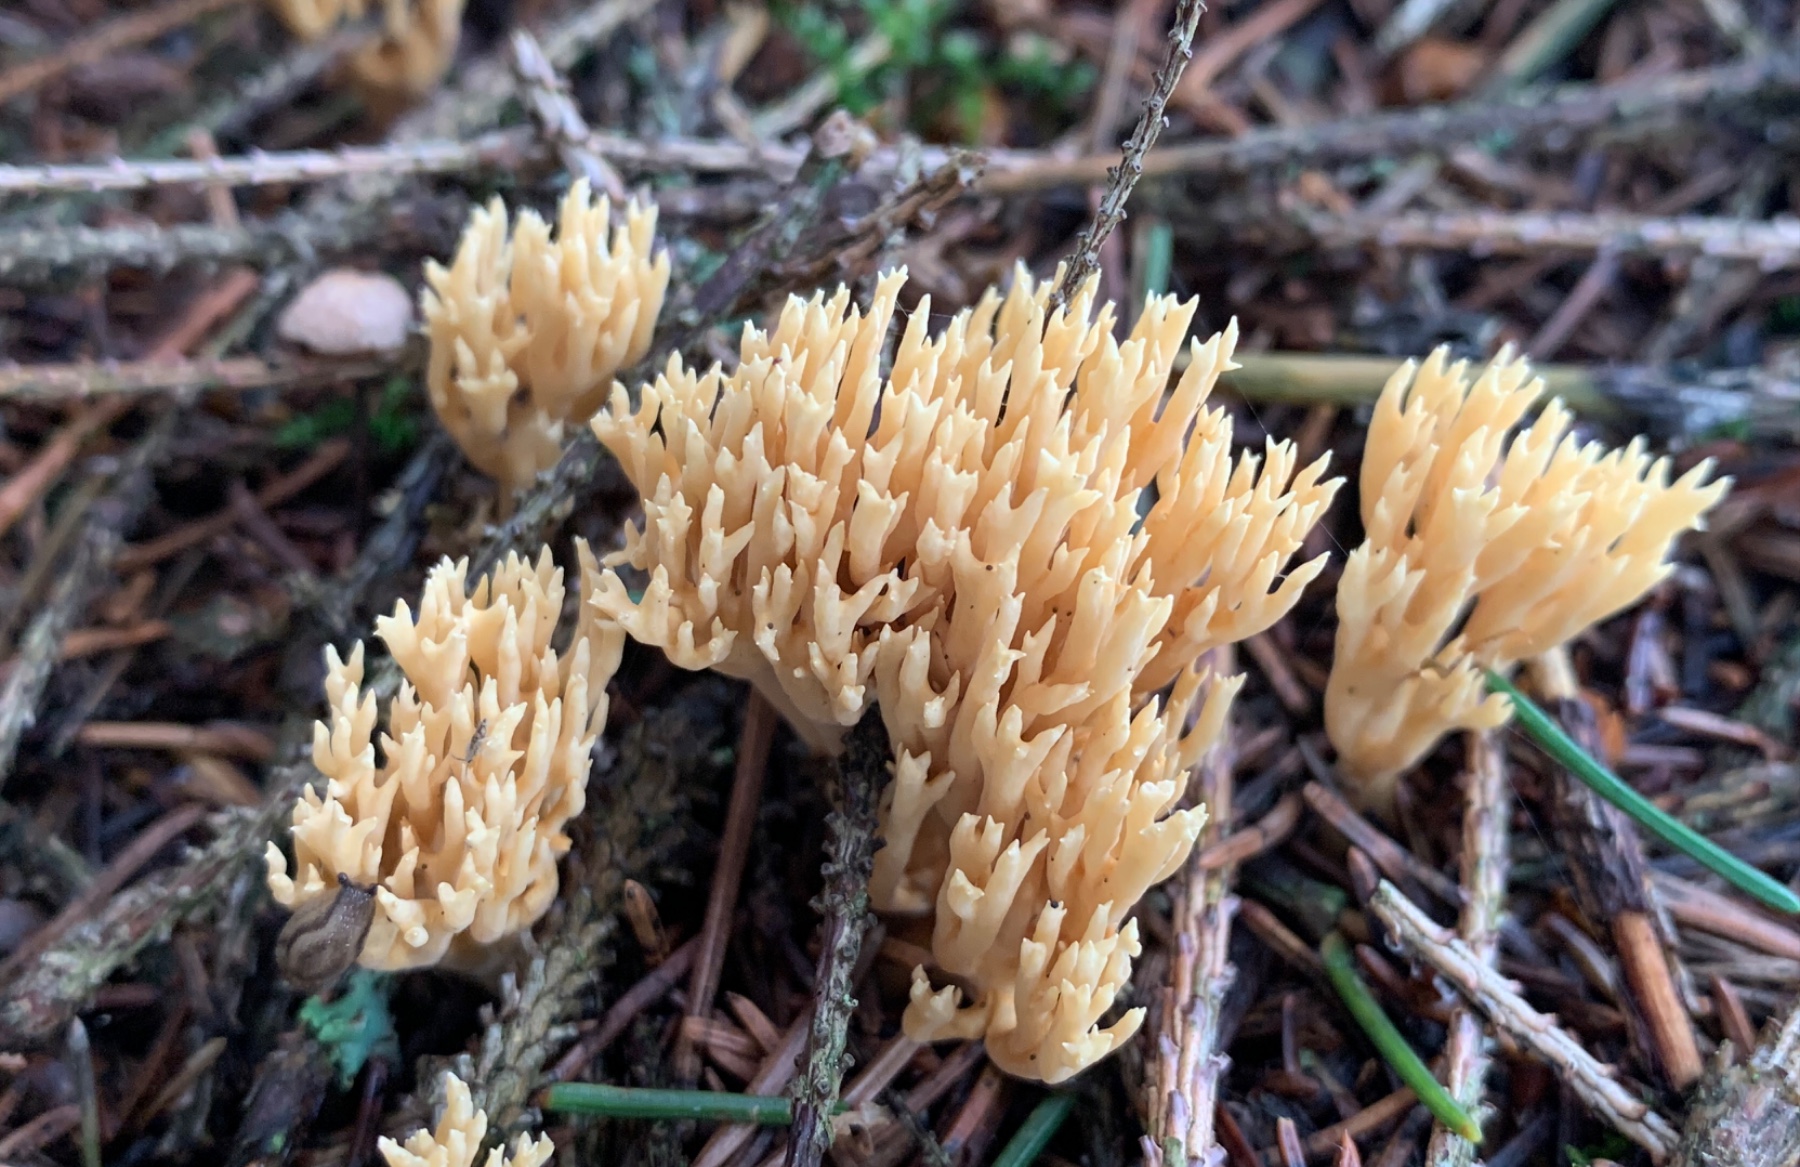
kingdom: Fungi
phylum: Basidiomycota
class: Agaricomycetes
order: Gomphales
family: Gomphaceae
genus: Phaeoclavulina
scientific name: Phaeoclavulina eumorpha
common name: gran-koralsvamp
